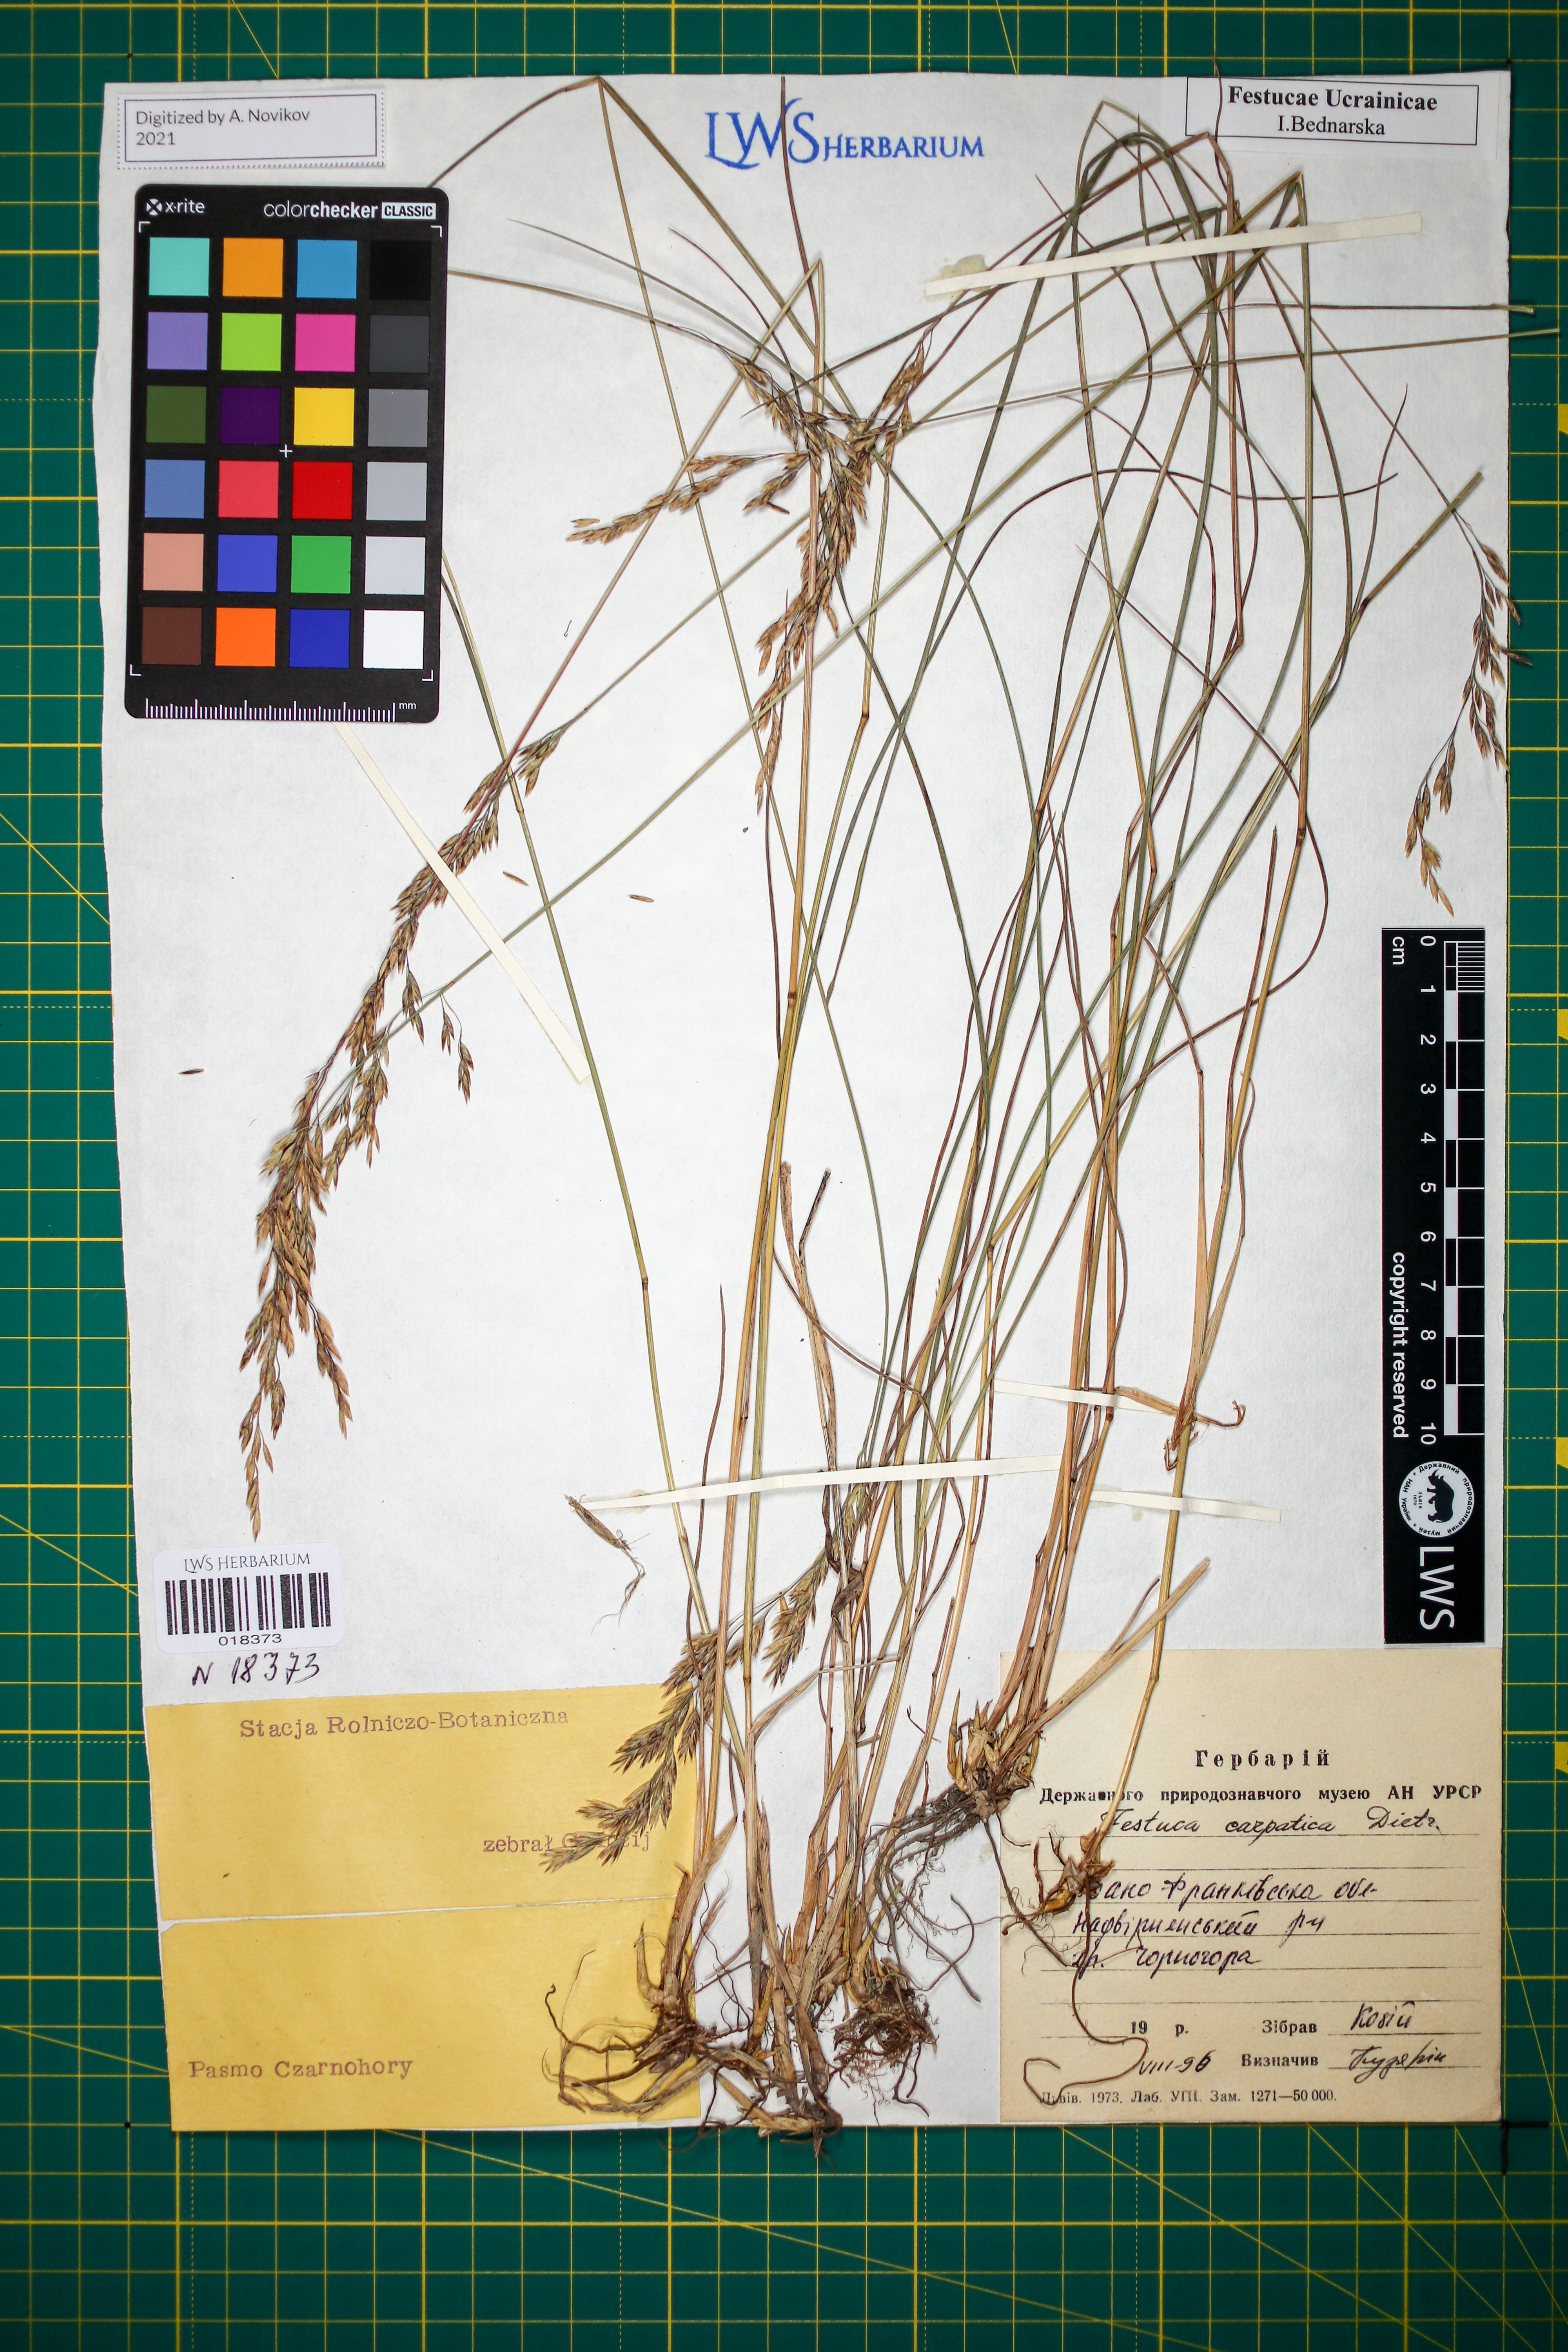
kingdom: Plantae
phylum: Tracheophyta
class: Liliopsida
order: Poales
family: Poaceae
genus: Festuca
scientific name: Festuca carpatica
